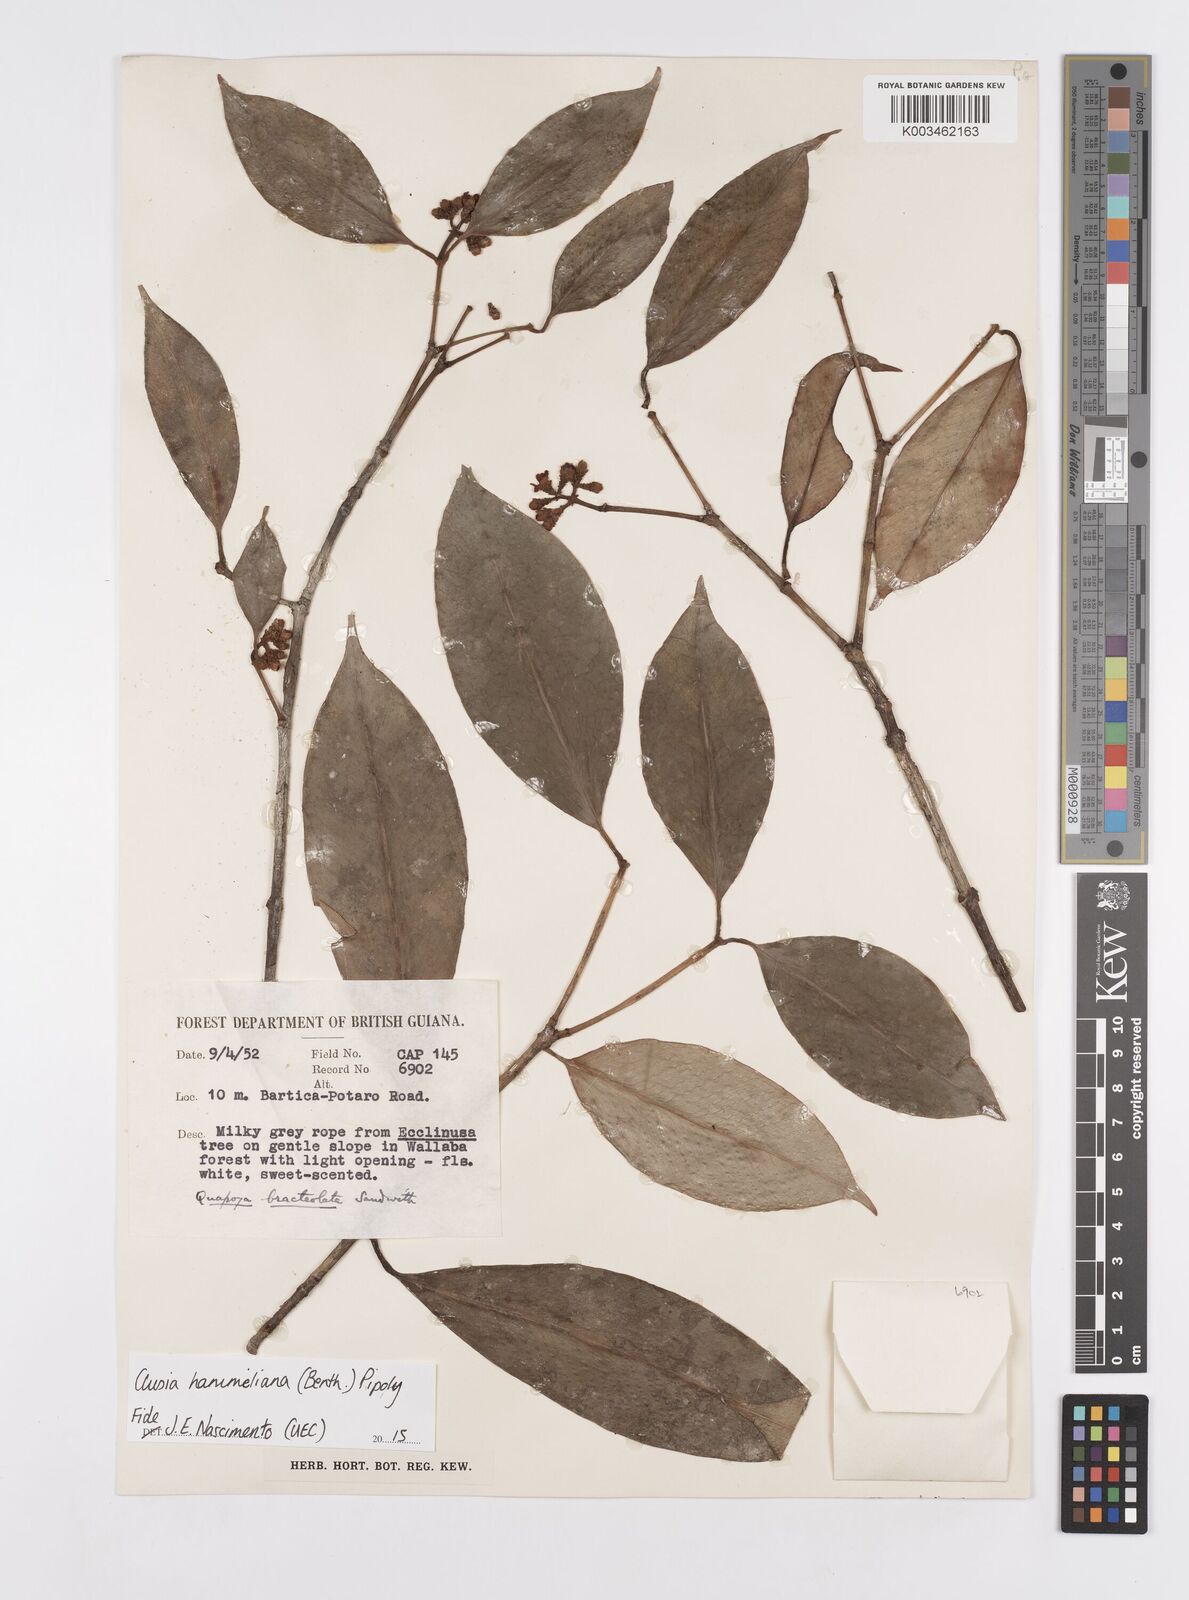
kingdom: Plantae
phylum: Tracheophyta
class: Magnoliopsida
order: Malpighiales
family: Clusiaceae
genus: Clusia
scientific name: Clusia hammeliana
